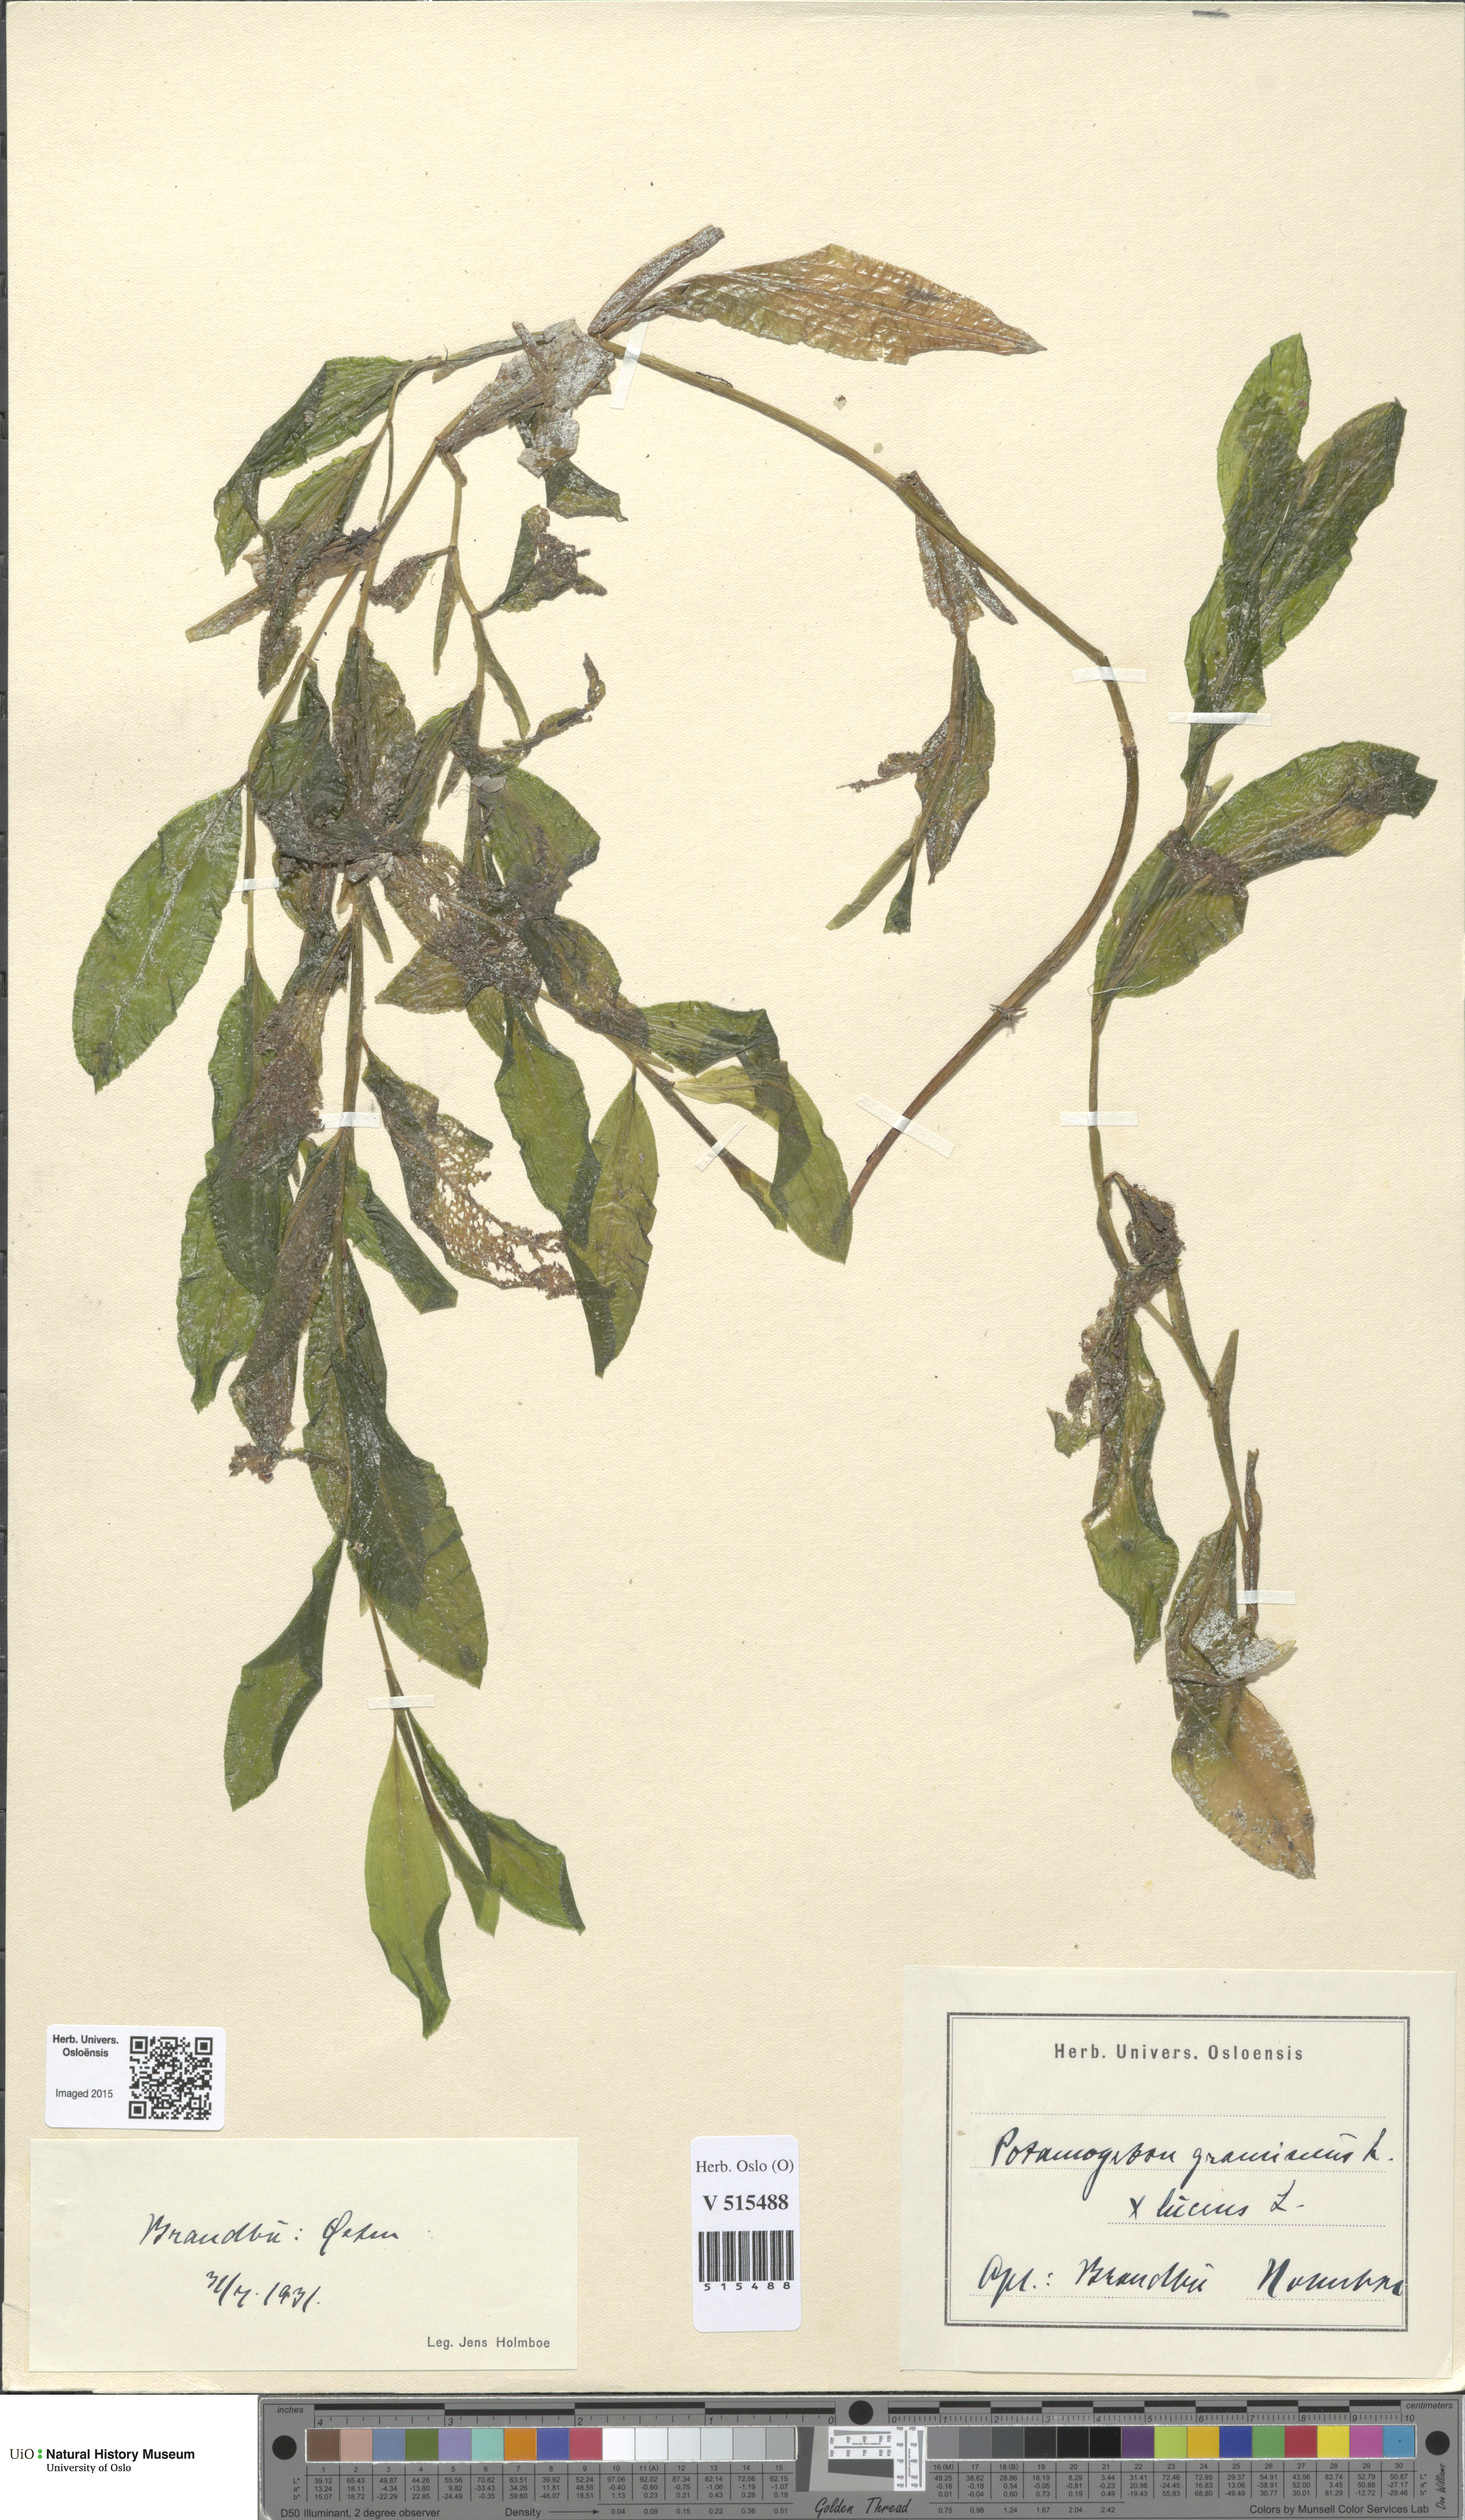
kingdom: Plantae
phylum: Tracheophyta
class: Liliopsida
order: Alismatales
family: Potamogetonaceae
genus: Potamogeton
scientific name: Potamogeton angustifolius
